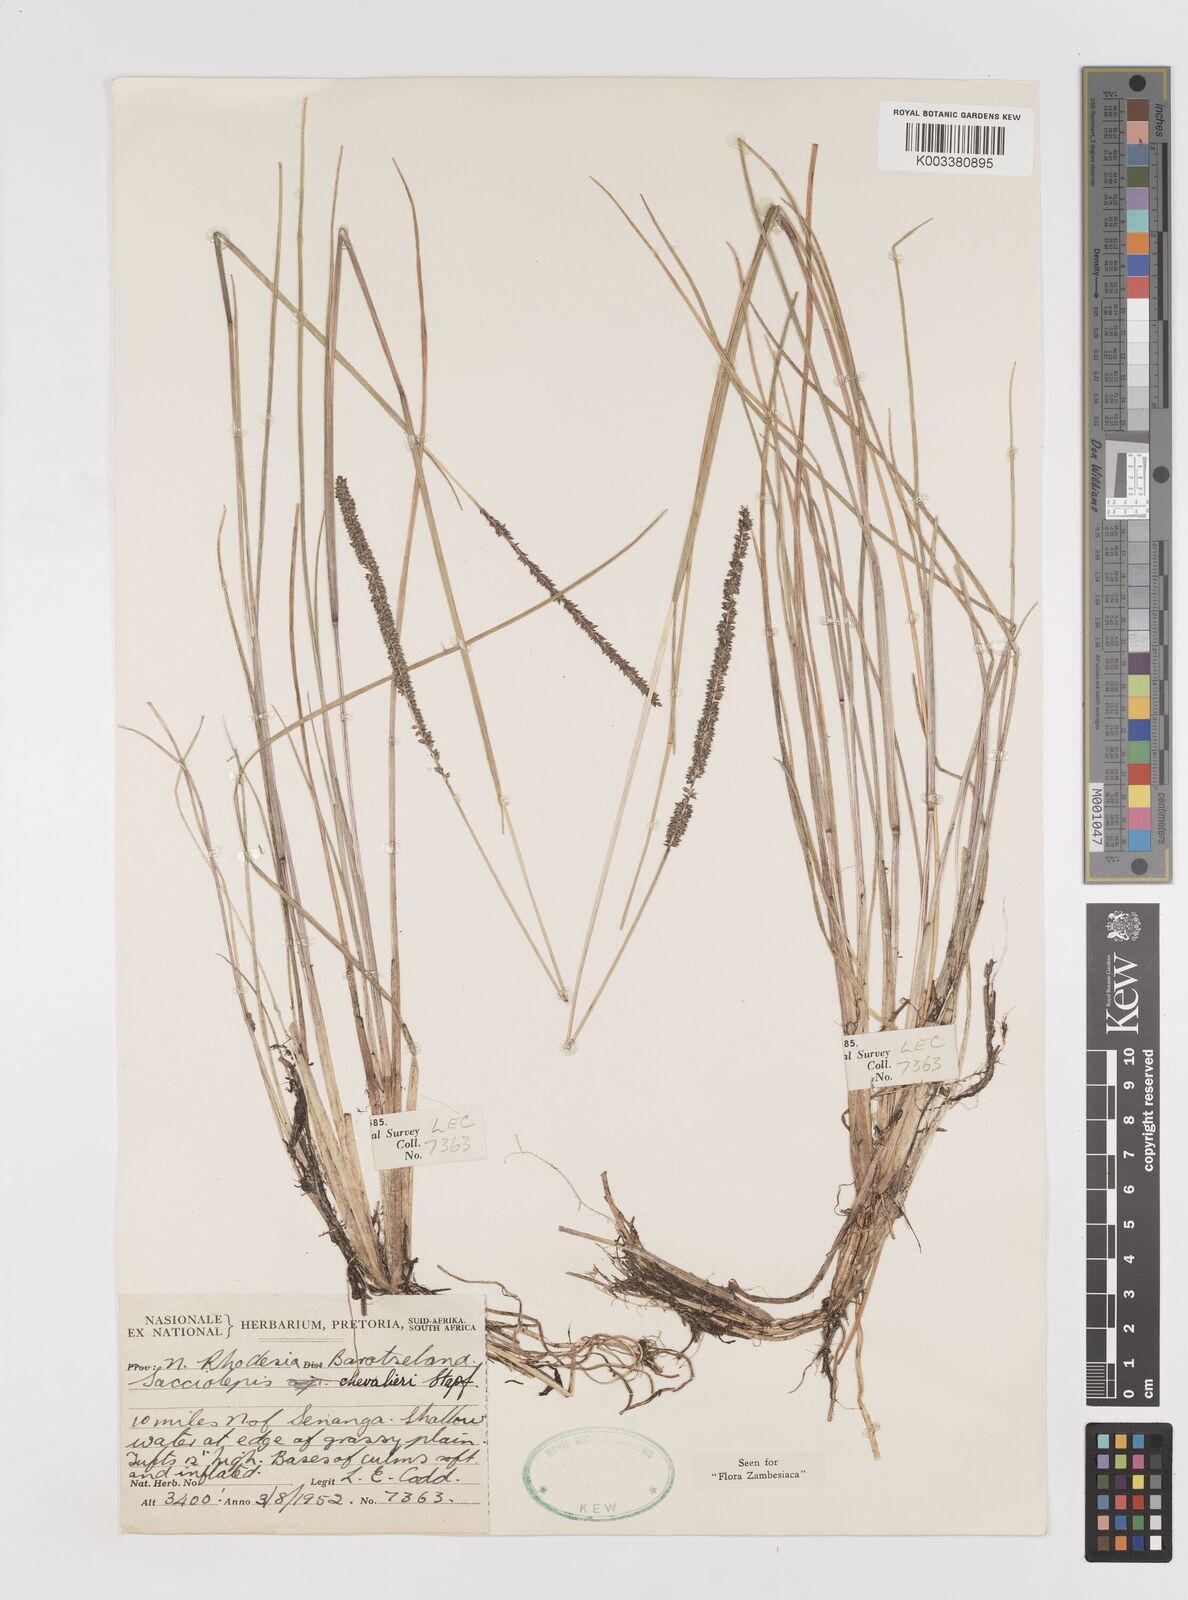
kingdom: Plantae
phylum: Tracheophyta
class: Liliopsida
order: Poales
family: Poaceae
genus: Sacciolepis
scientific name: Sacciolepis chevalieri
